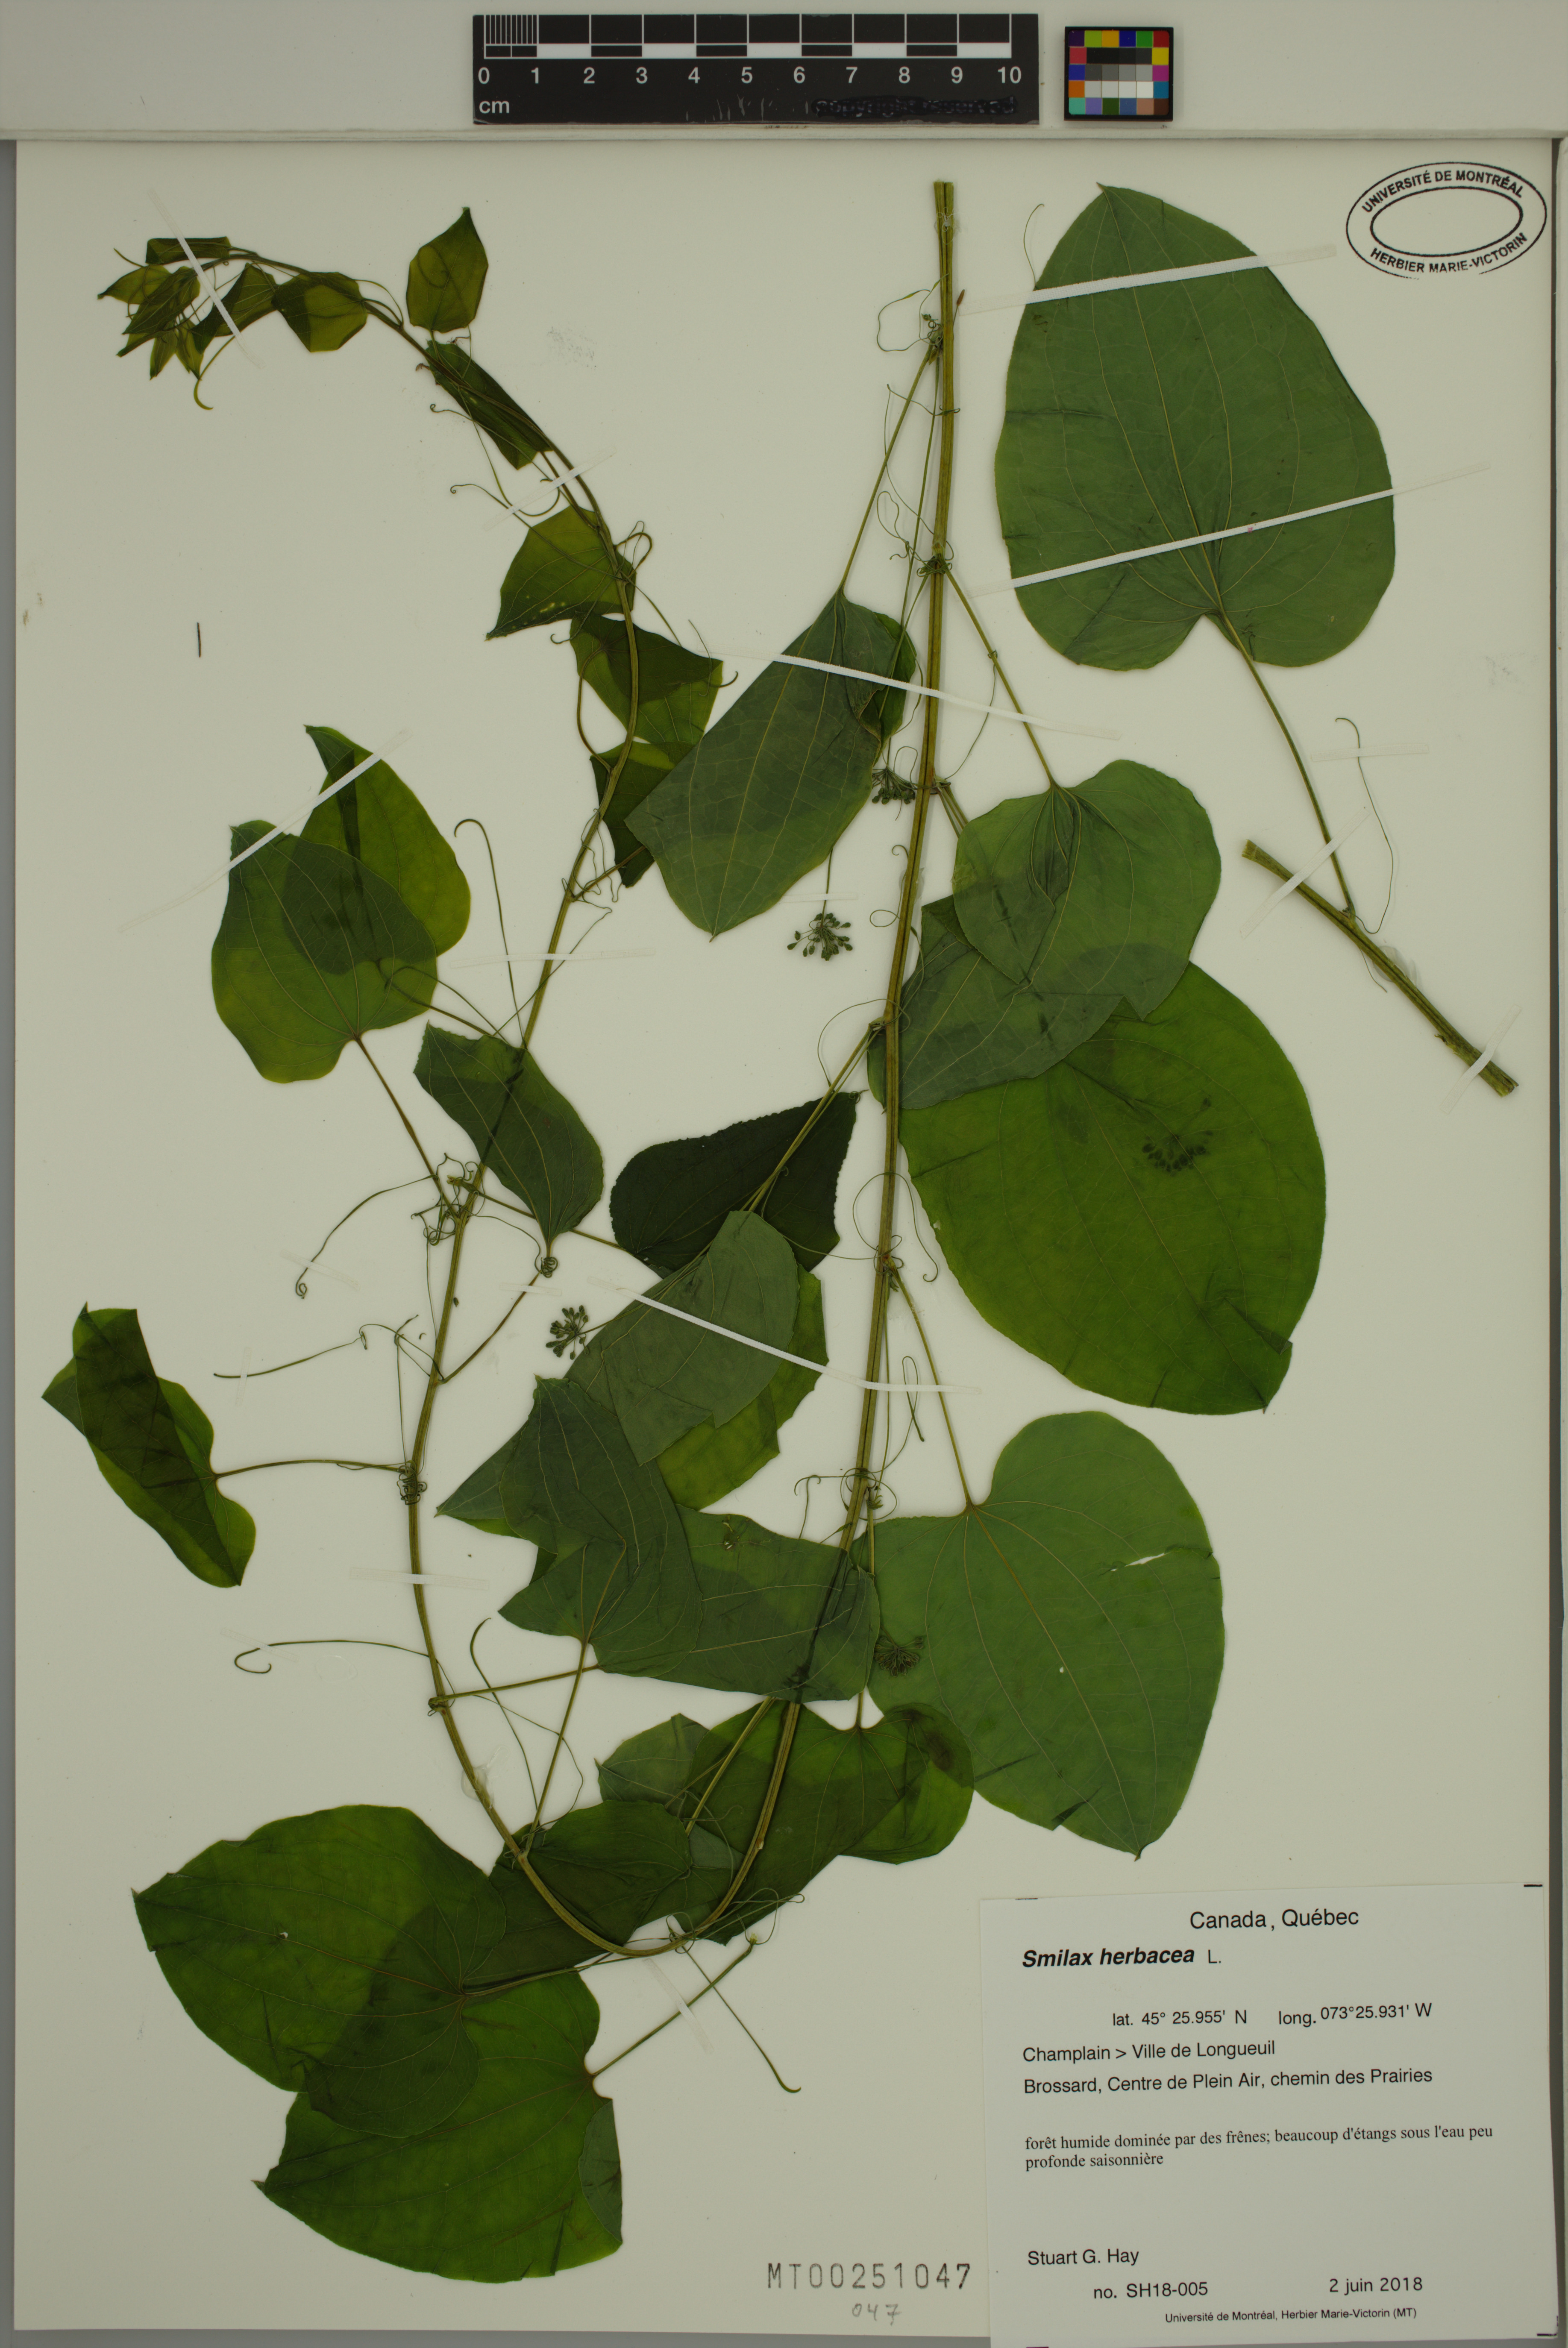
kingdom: Plantae
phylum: Tracheophyta
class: Liliopsida
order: Liliales
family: Smilacaceae
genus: Smilax
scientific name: Smilax herbacea
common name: Jacob's-ladder
